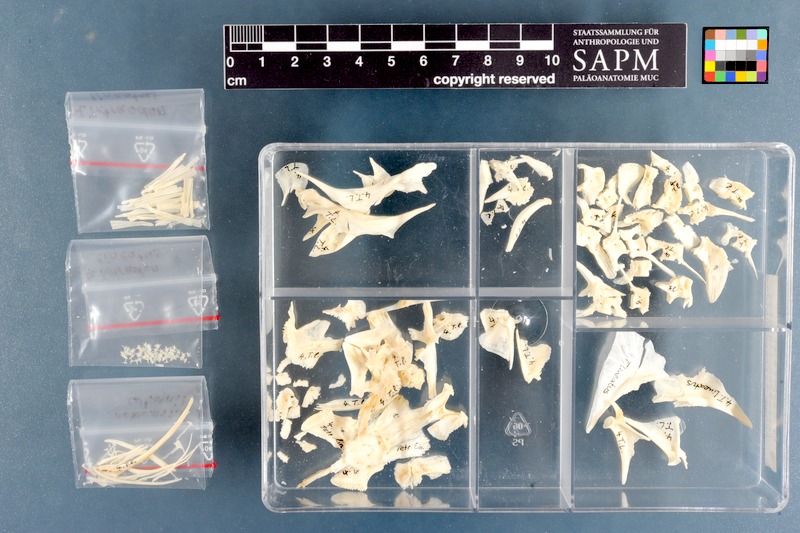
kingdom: Animalia
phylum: Chordata
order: Tetraodontiformes
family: Tetraodontidae
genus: Tetraodon
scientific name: Tetraodon lineatus
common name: Coral butterfly
